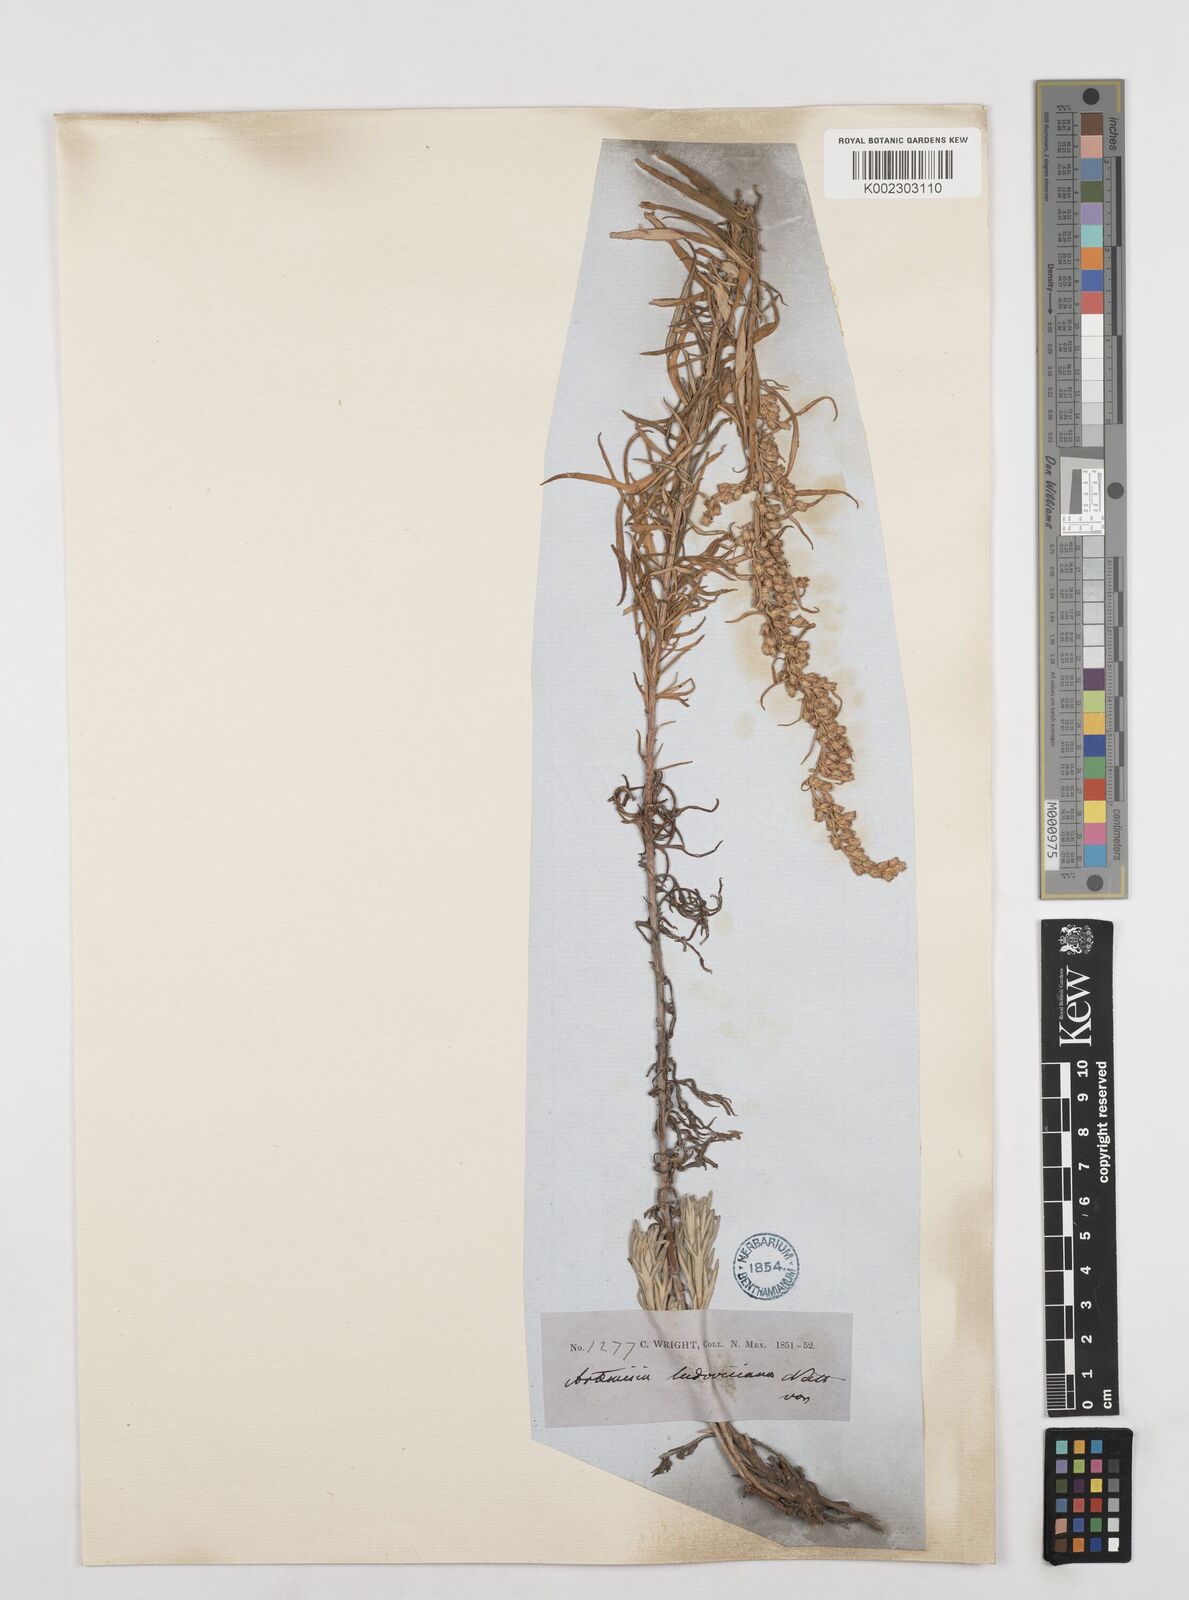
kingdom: Plantae
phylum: Tracheophyta
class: Magnoliopsida
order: Asterales
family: Asteraceae
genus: Artemisia
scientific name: Artemisia neomexicana
